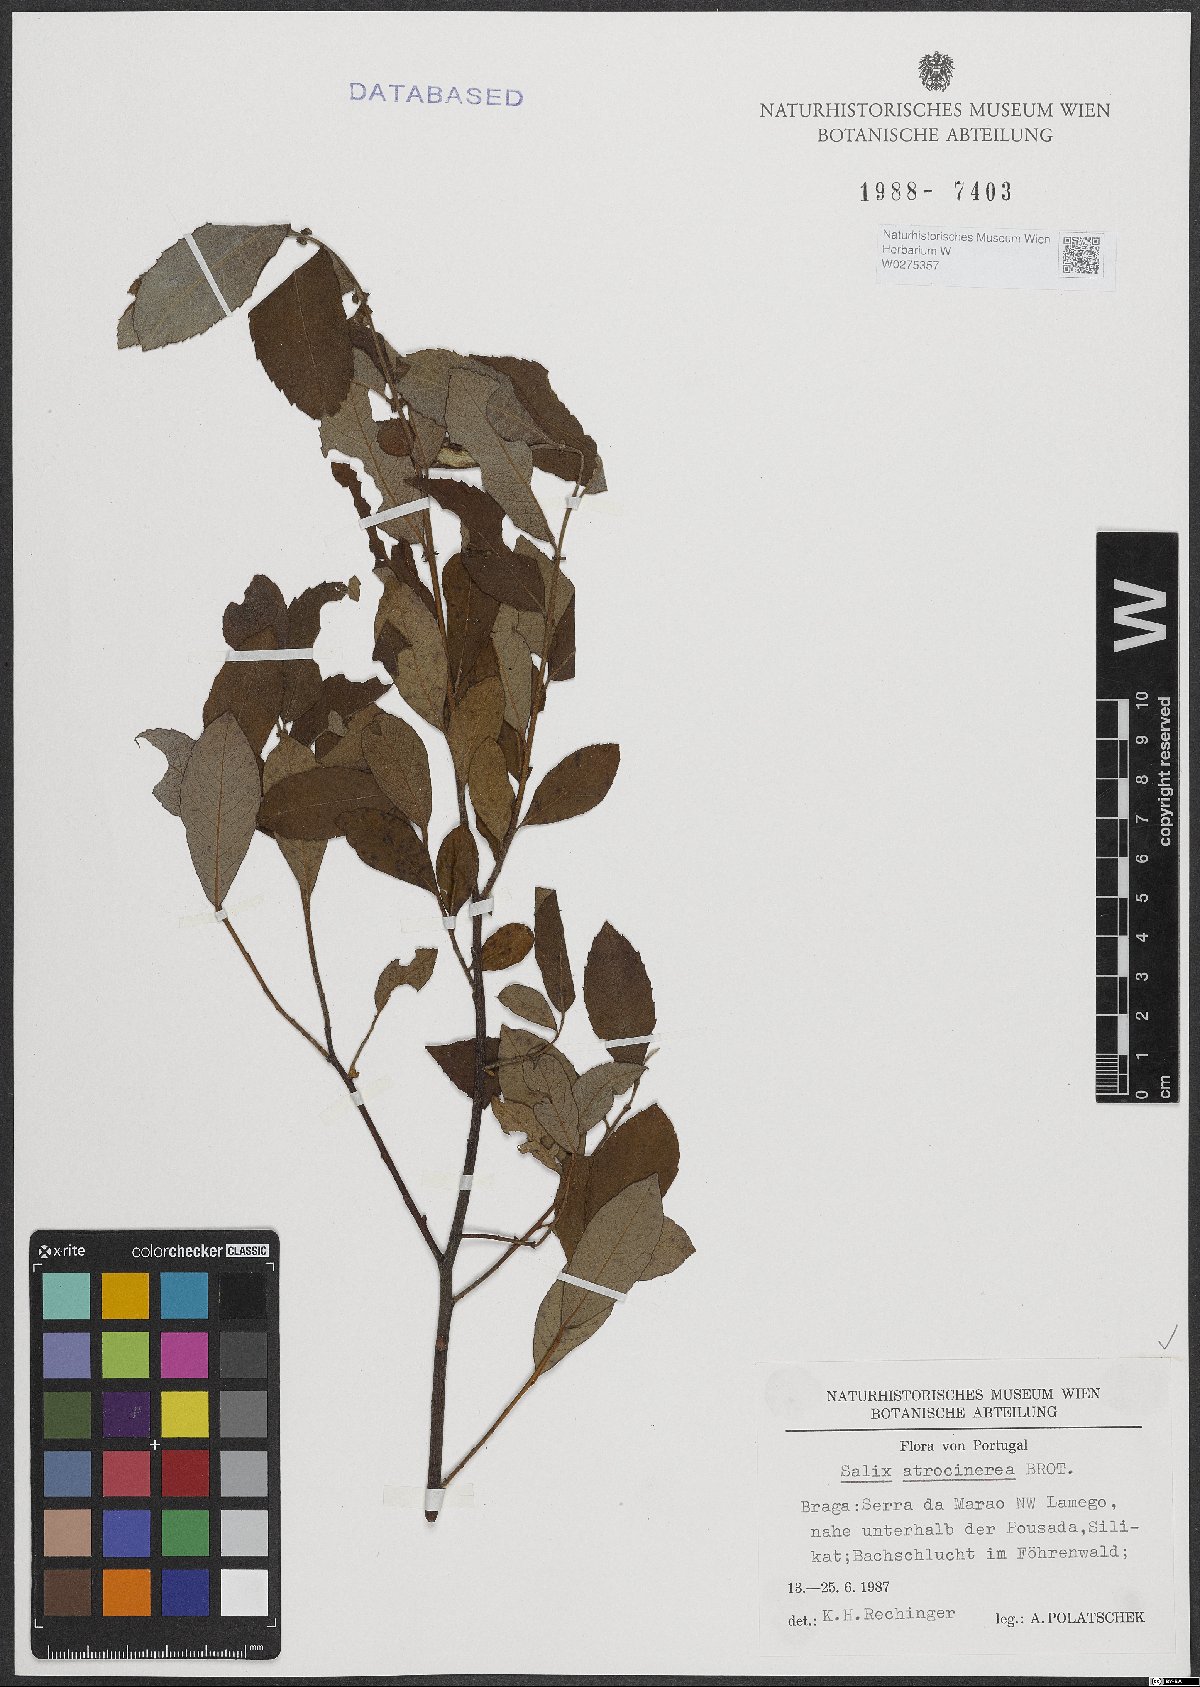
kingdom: Plantae
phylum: Tracheophyta
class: Magnoliopsida
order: Malpighiales
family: Salicaceae
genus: Salix
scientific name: Salix atrocinerea
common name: Rusty willow
